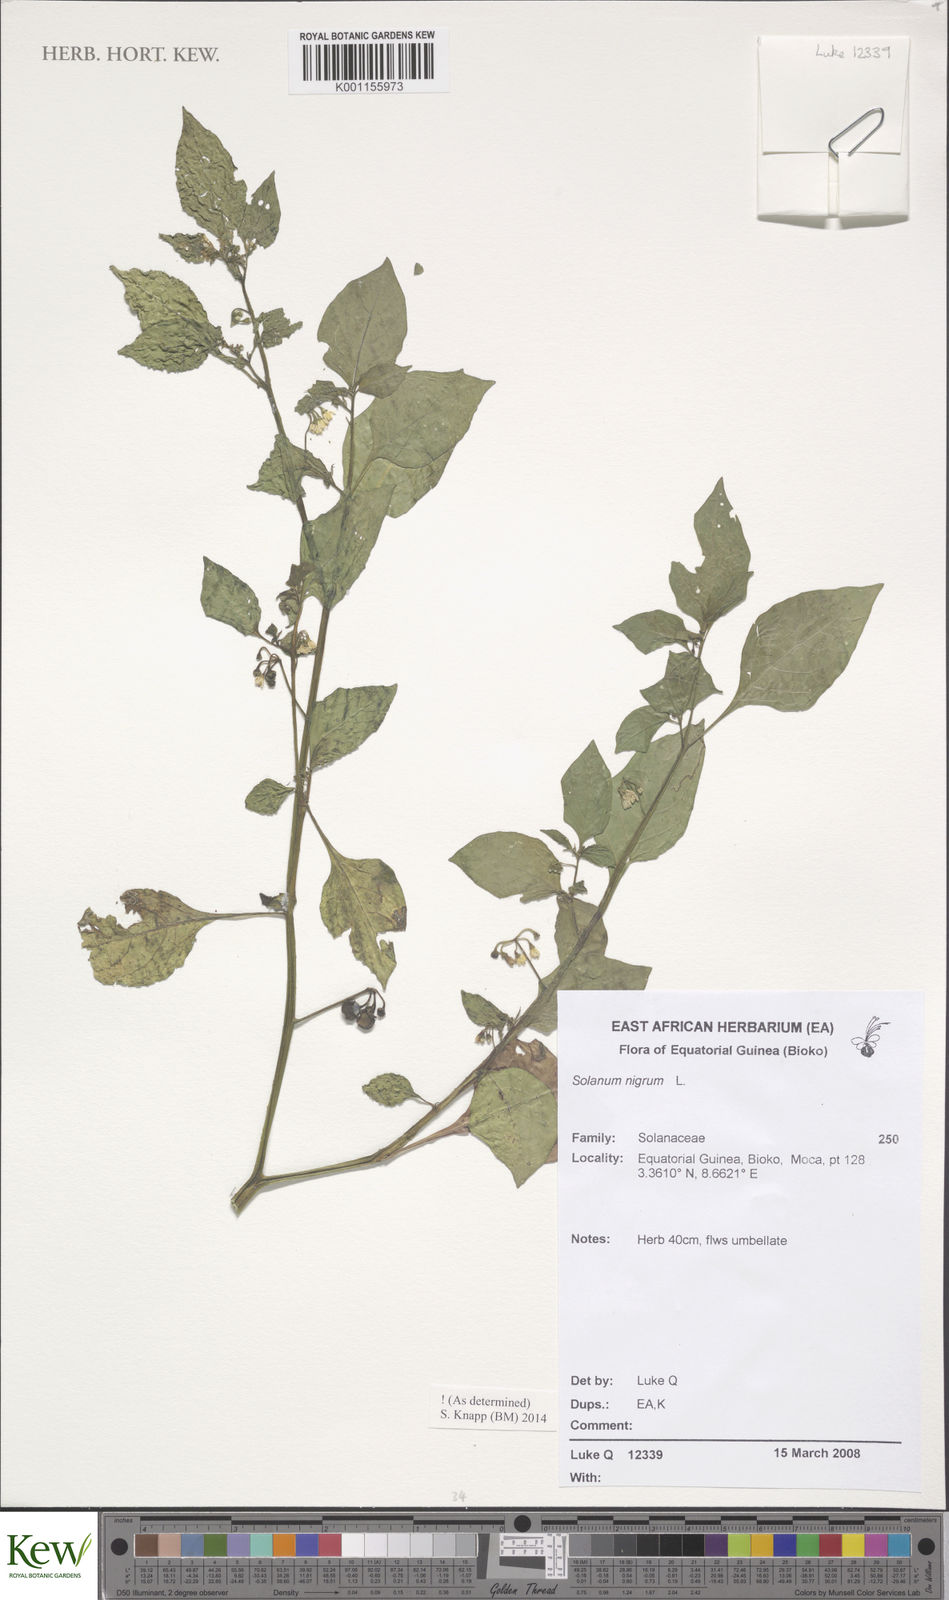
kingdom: Plantae
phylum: Tracheophyta
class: Magnoliopsida
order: Solanales
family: Solanaceae
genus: Solanum
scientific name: Solanum scabrum
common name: Garden-huckleberry
